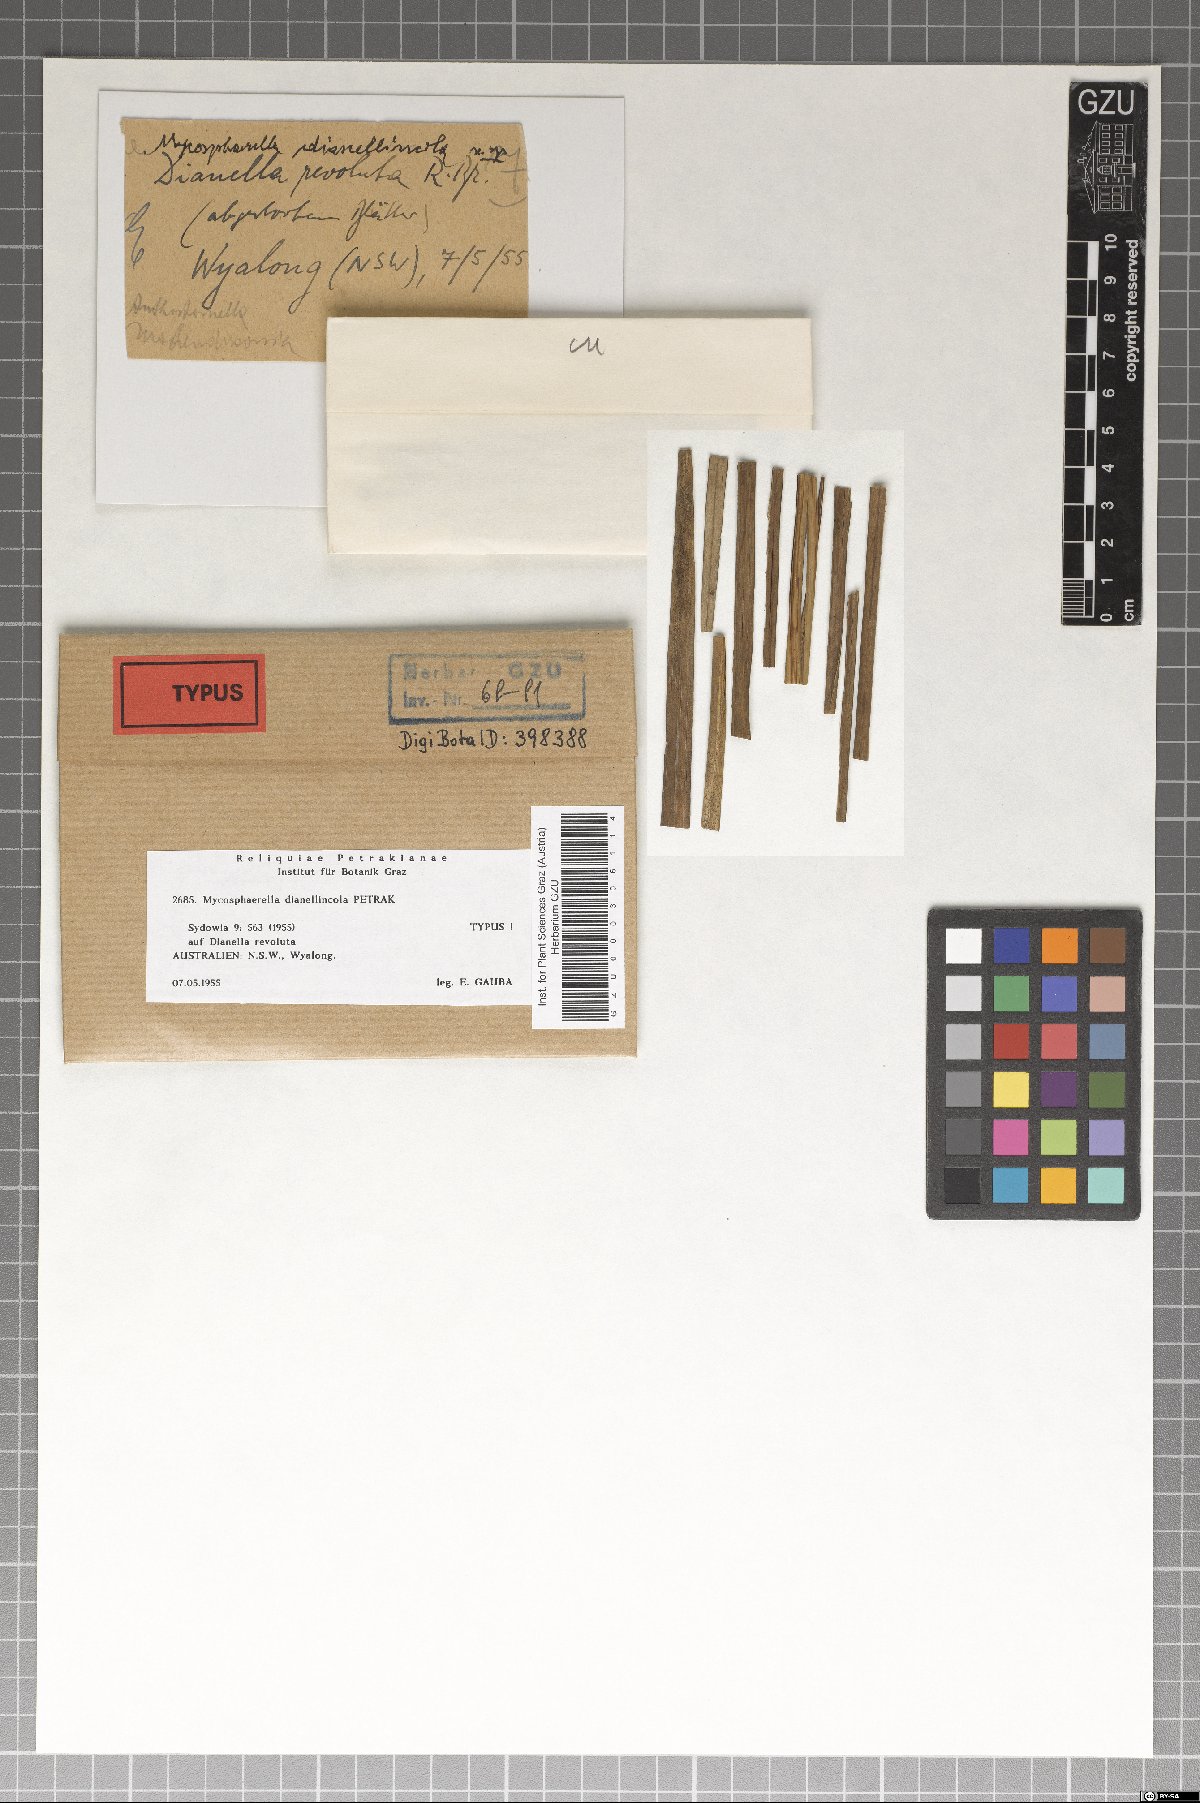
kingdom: Fungi
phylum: Ascomycota
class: Dothideomycetes
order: Mycosphaerellales
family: Mycosphaerellaceae
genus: Mycosphaerella
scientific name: Mycosphaerella dianellincola
